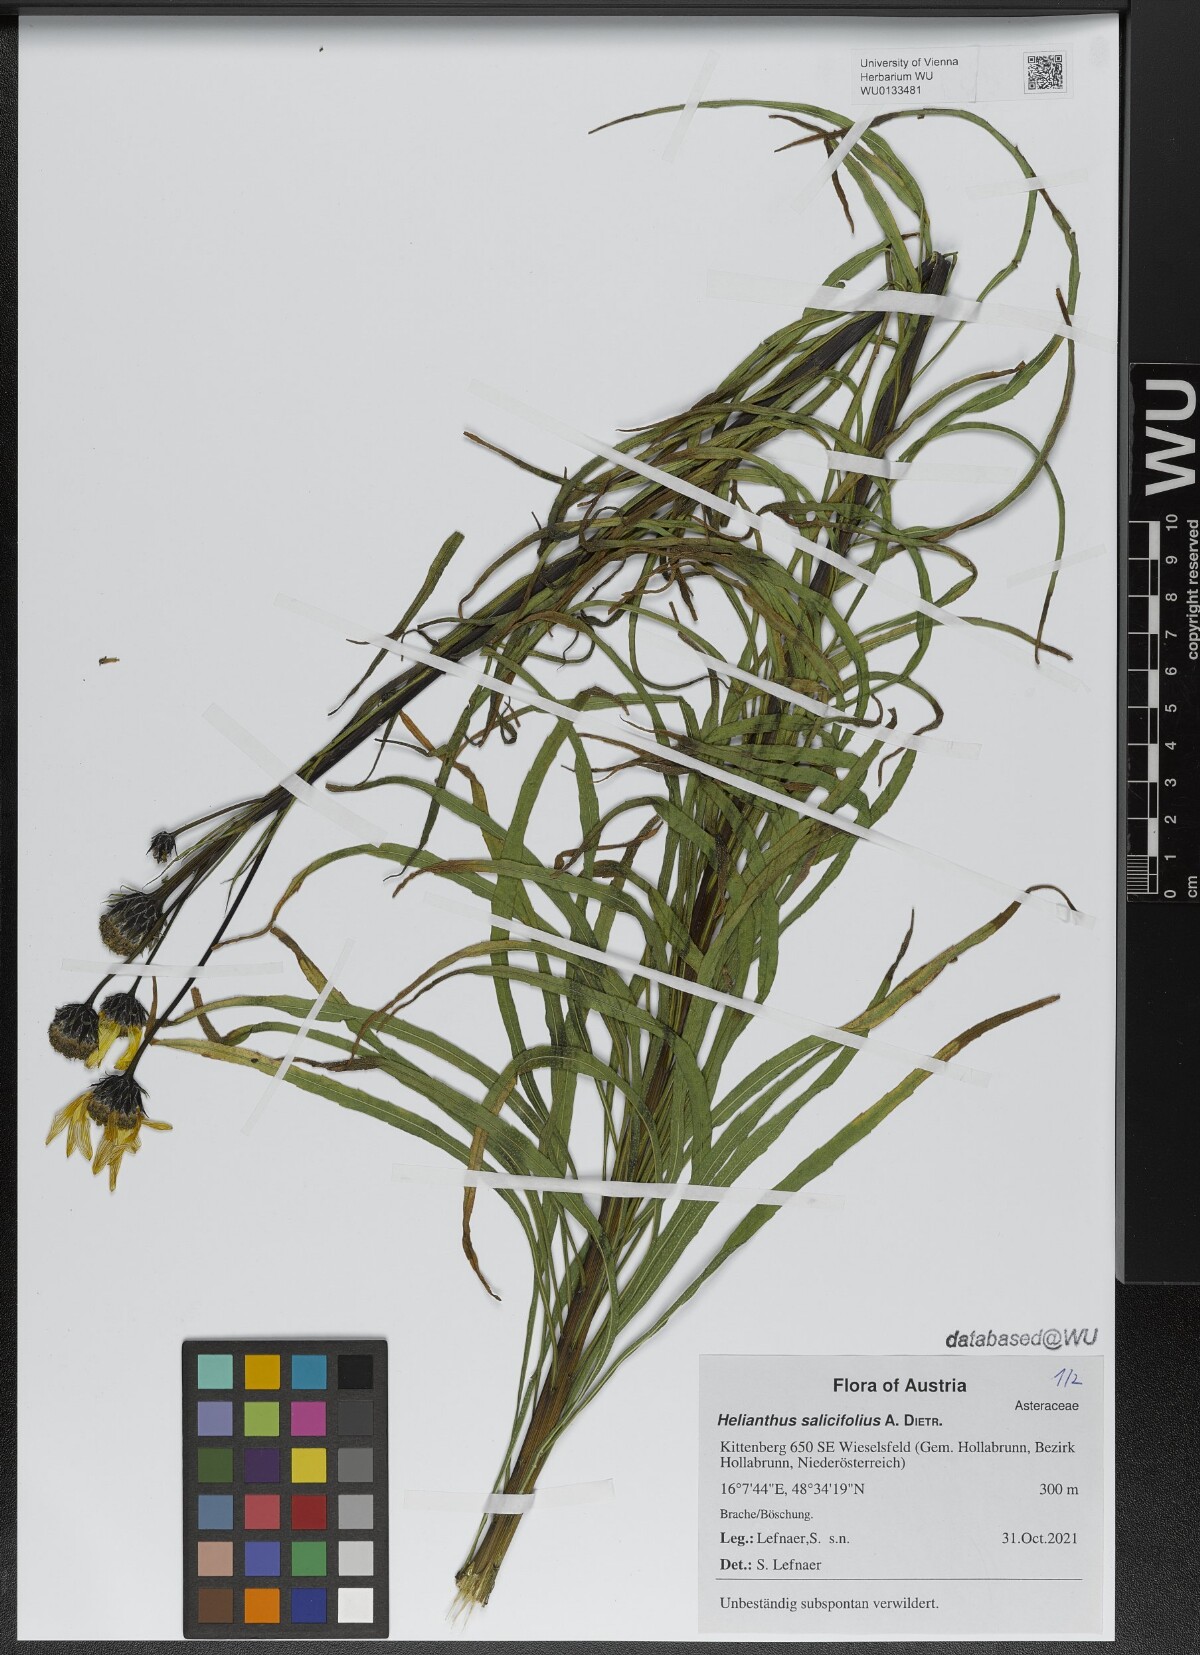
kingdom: Plantae
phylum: Tracheophyta
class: Magnoliopsida
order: Asterales
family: Asteraceae
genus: Helianthus
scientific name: Helianthus salicifolius
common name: Willowleaf sunflower
